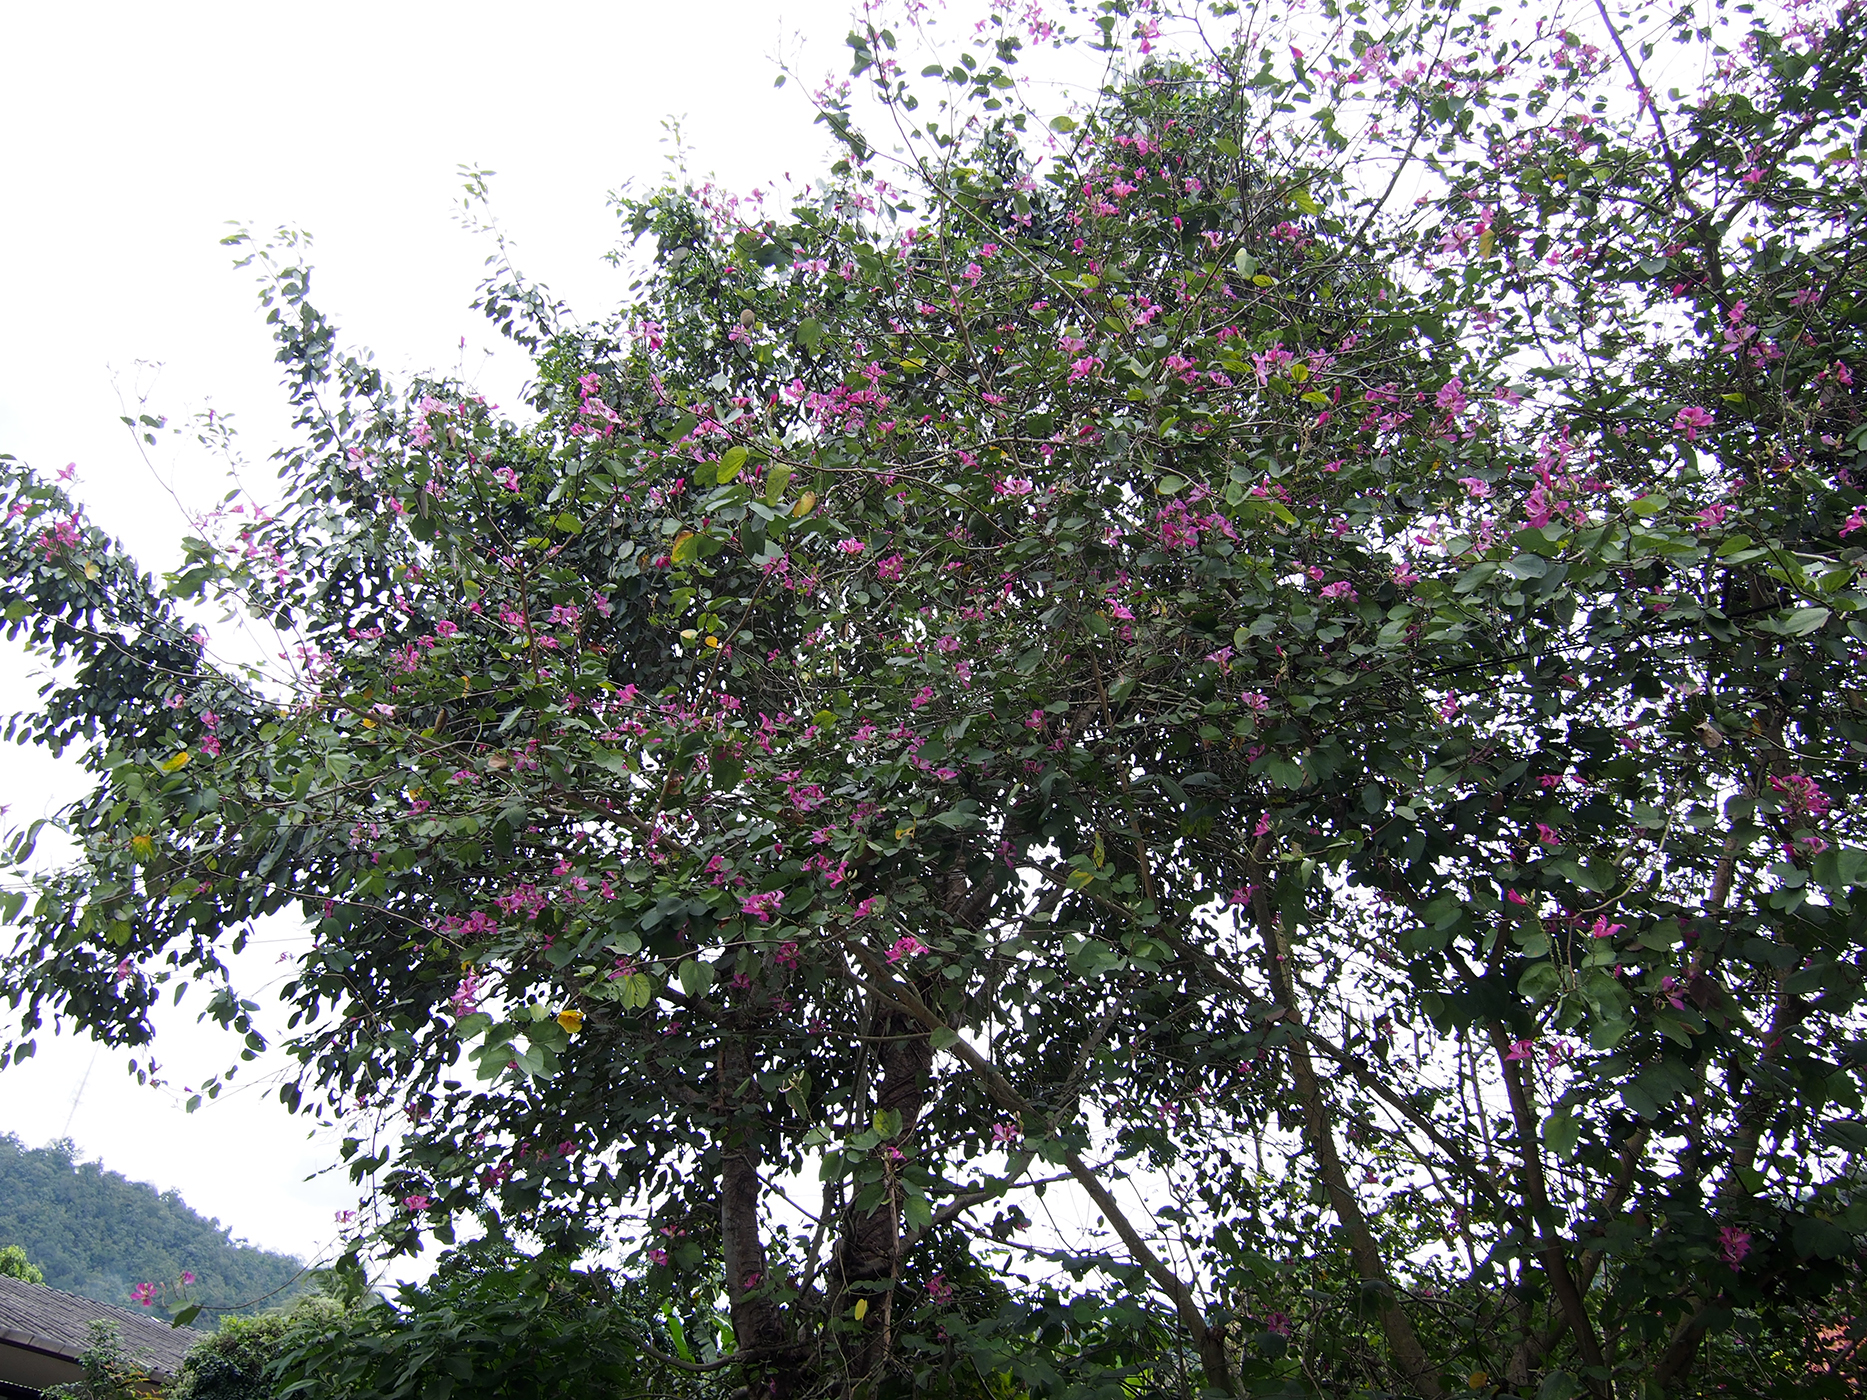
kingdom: Plantae
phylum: Tracheophyta
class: Magnoliopsida
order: Fabales
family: Fabaceae
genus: Bauhinia
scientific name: Bauhinia purpurea
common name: Butterfly-tree
